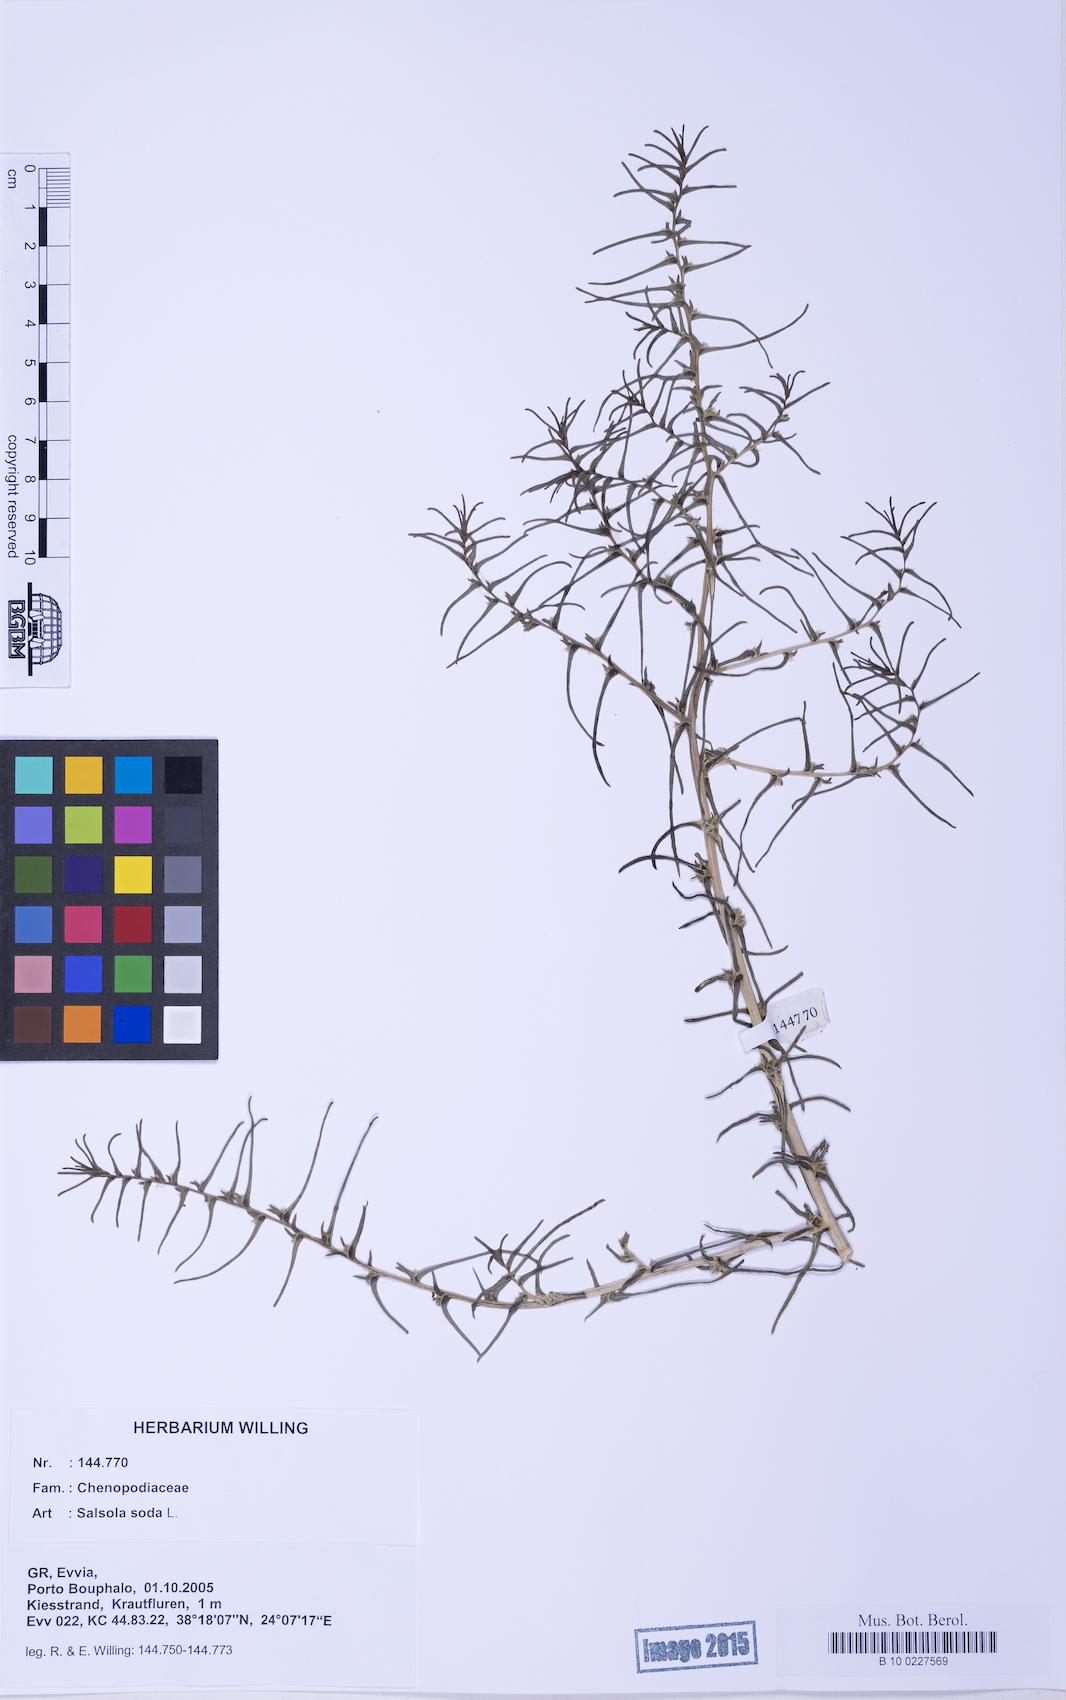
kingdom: Plantae
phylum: Tracheophyta
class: Magnoliopsida
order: Caryophyllales
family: Amaranthaceae
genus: Soda
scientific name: Soda inermis
